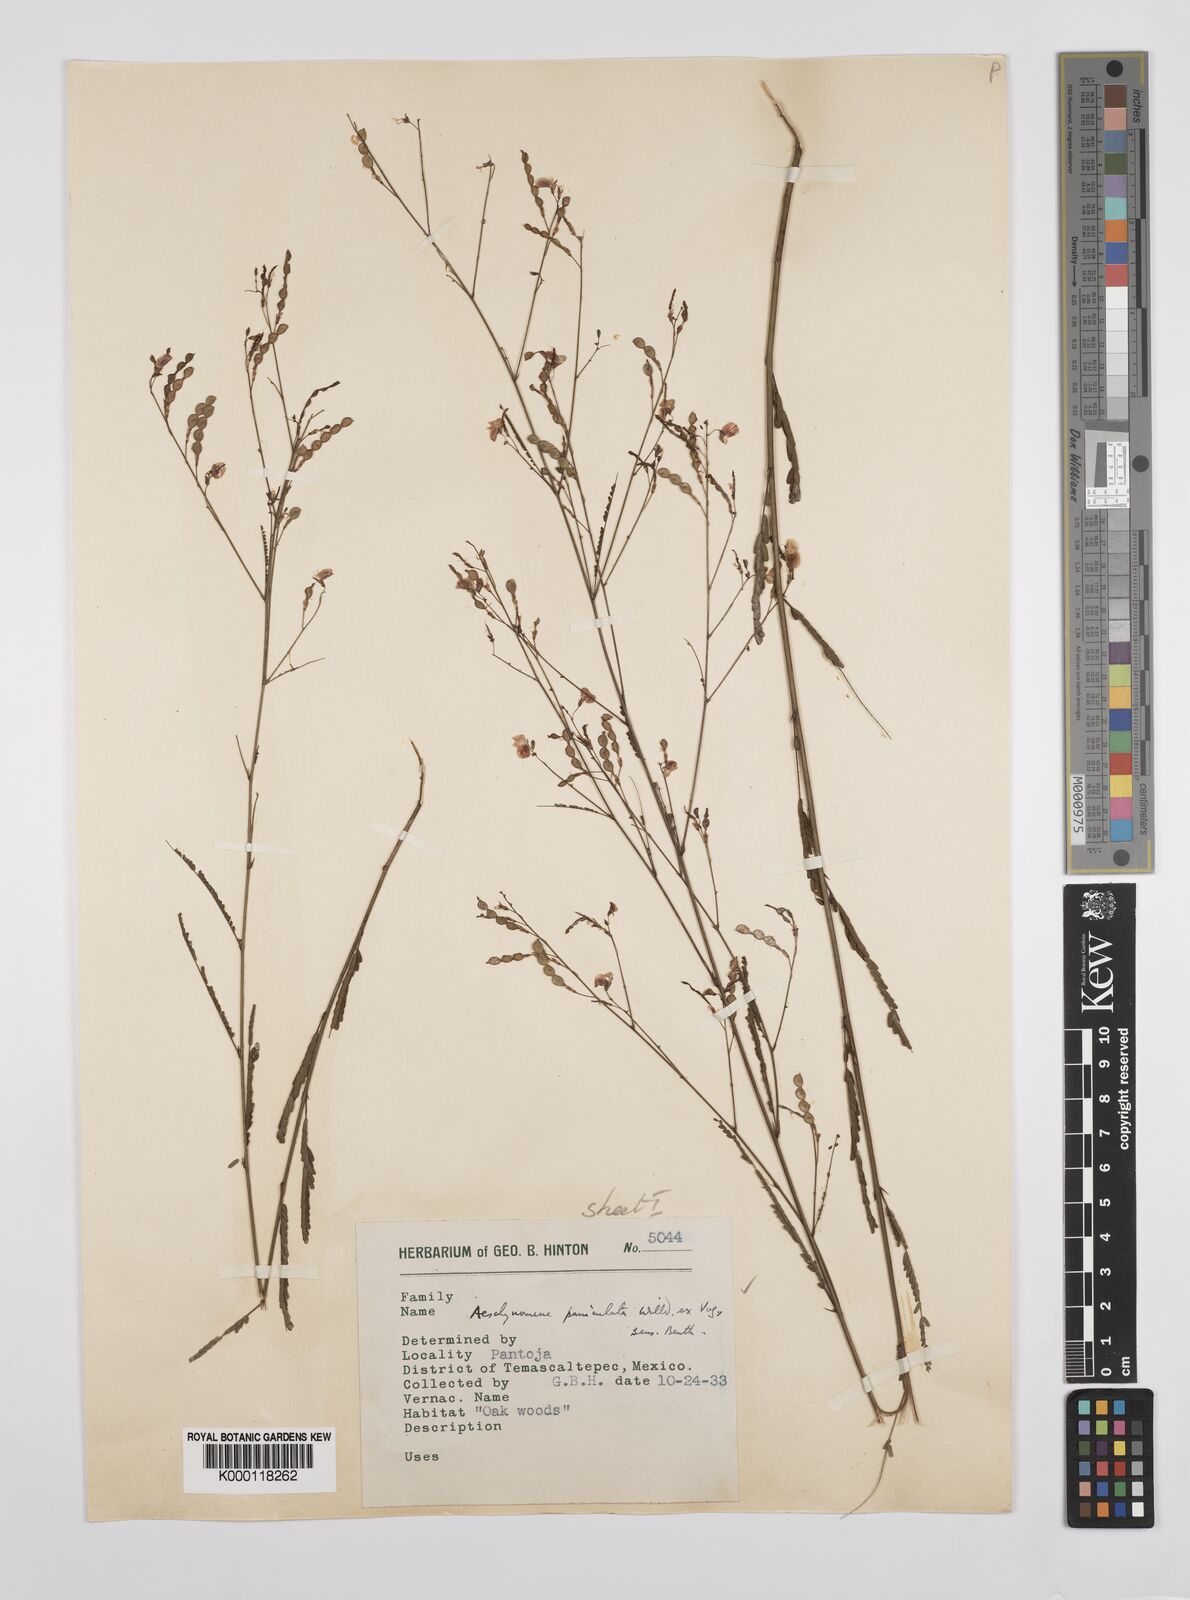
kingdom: Plantae
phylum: Tracheophyta
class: Magnoliopsida
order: Fabales
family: Fabaceae
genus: Ctenodon
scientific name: Ctenodon paniculatus
